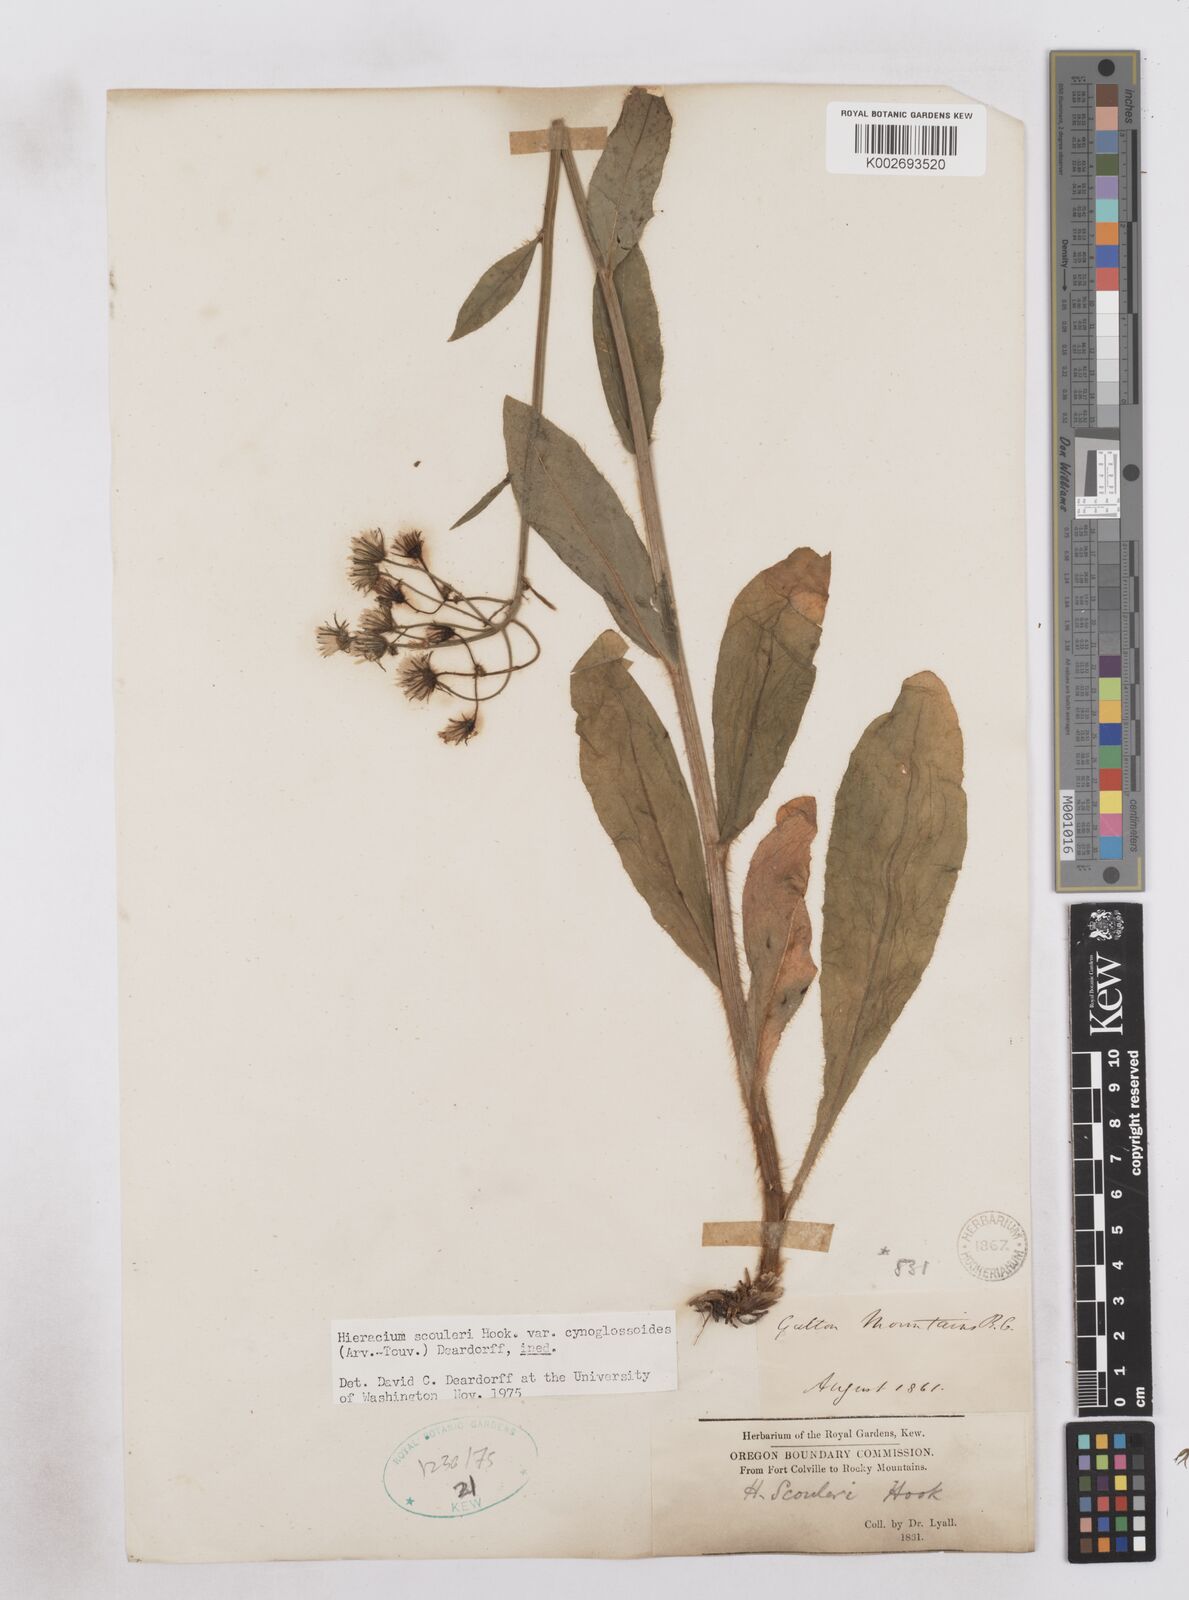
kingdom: Plantae
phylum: Tracheophyta
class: Magnoliopsida
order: Asterales
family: Asteraceae
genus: Hieracium
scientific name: Hieracium scouleri
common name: Hound's-tongue hawkweed
